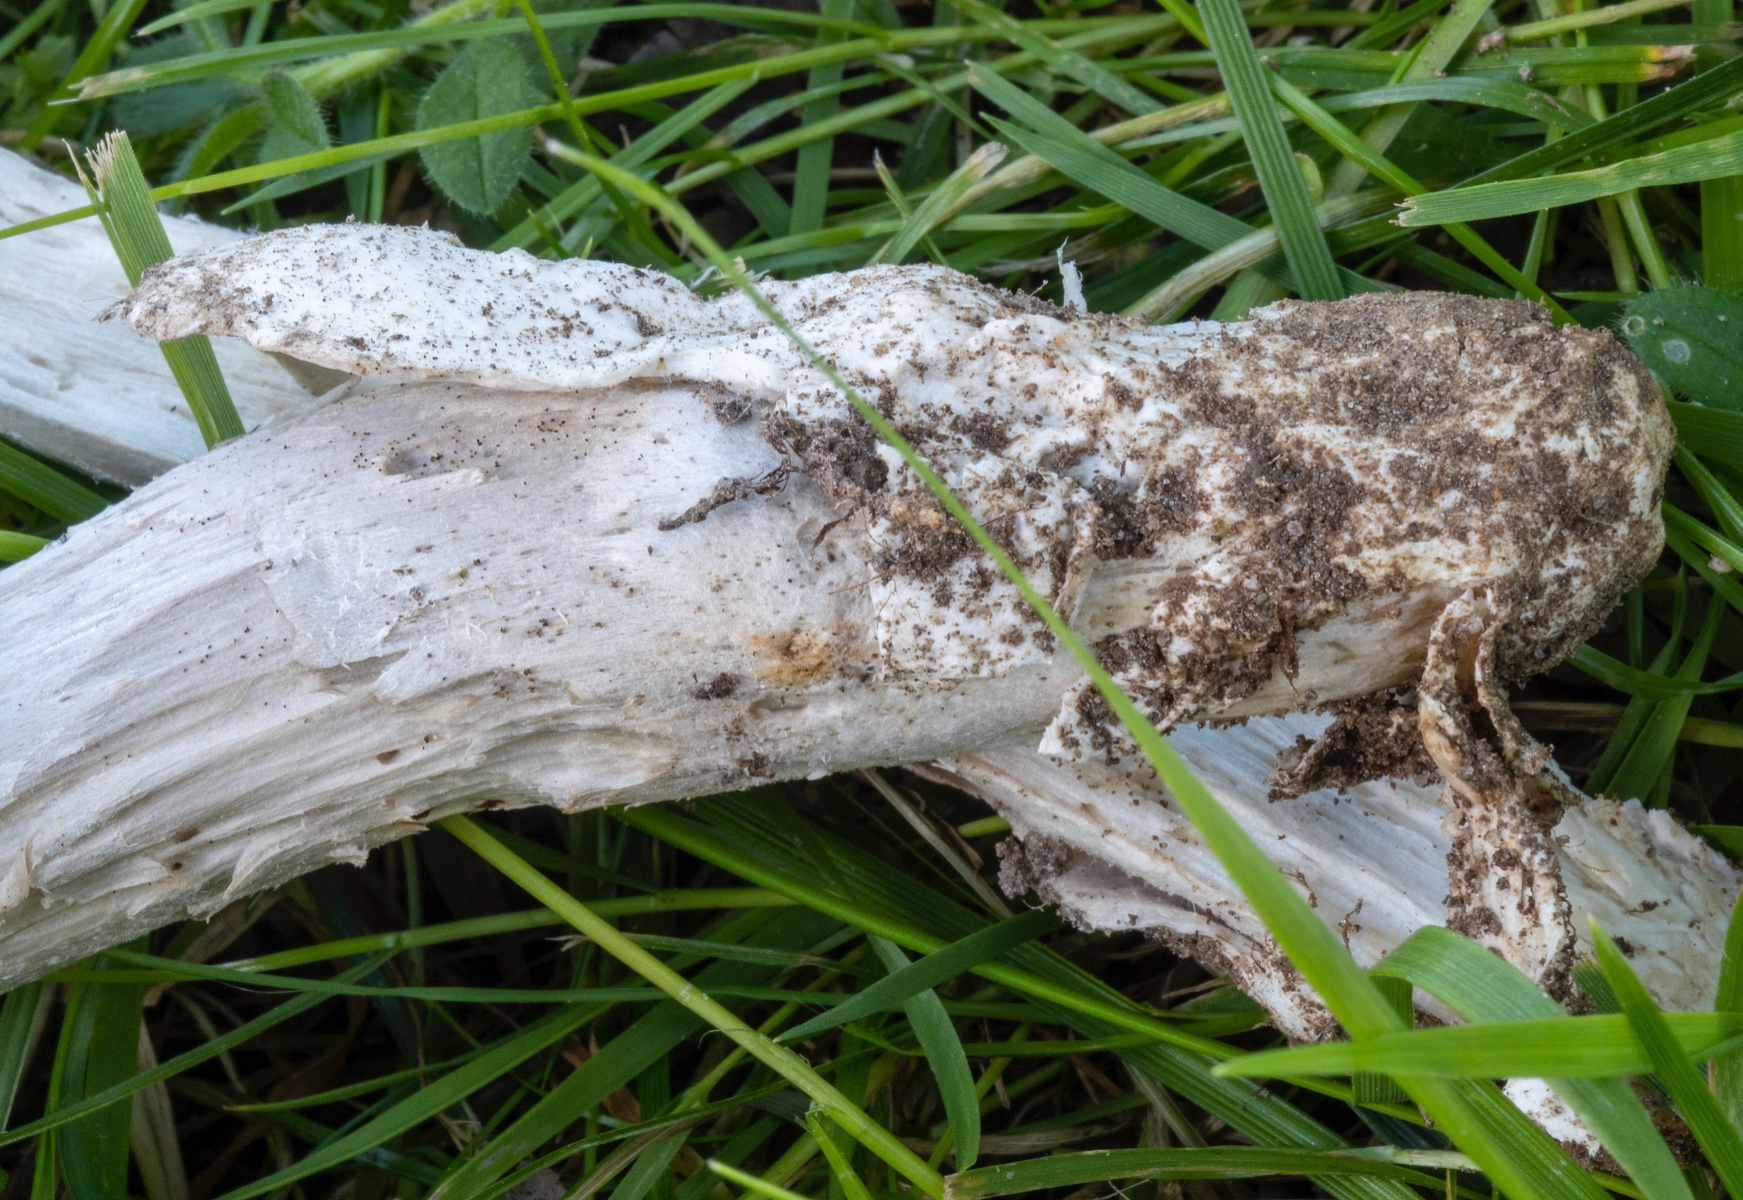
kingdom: Fungi
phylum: Basidiomycota
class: Agaricomycetes
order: Agaricales
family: Amanitaceae
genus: Amanita
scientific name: Amanita huijsmanii
